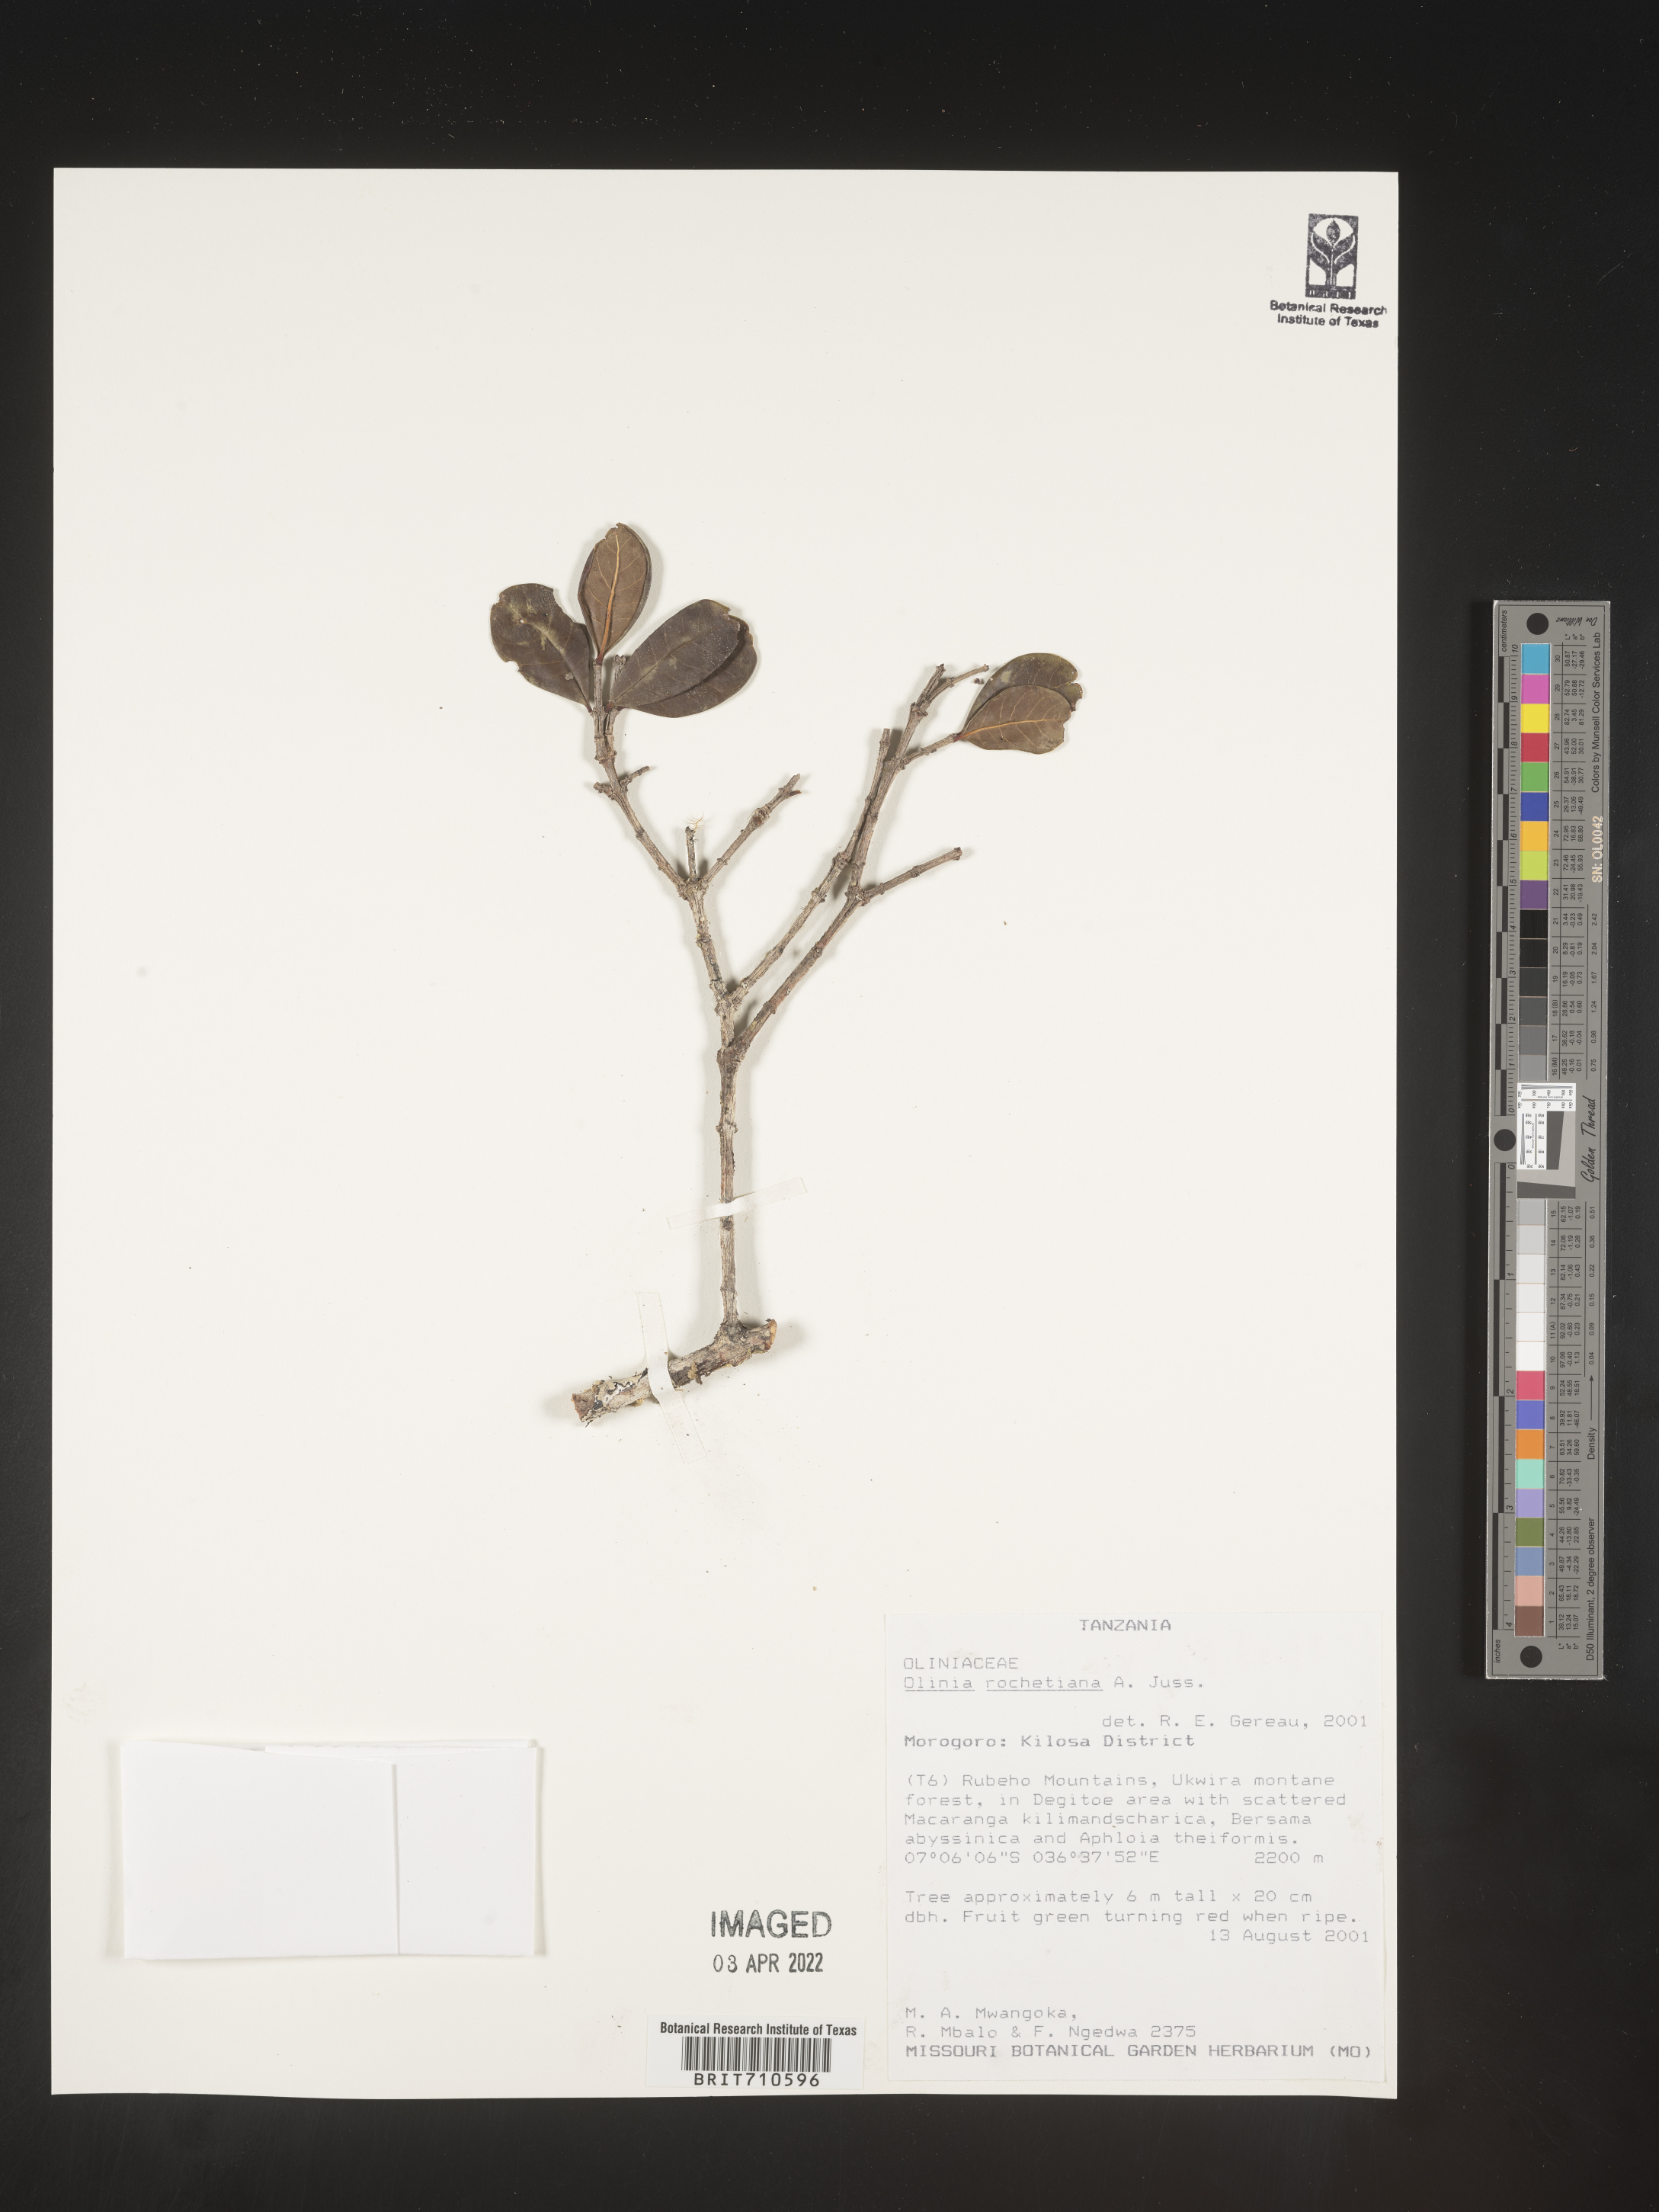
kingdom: Plantae
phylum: Tracheophyta
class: Magnoliopsida
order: Myrtales
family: Penaeaceae
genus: Olinia
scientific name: Olinia
